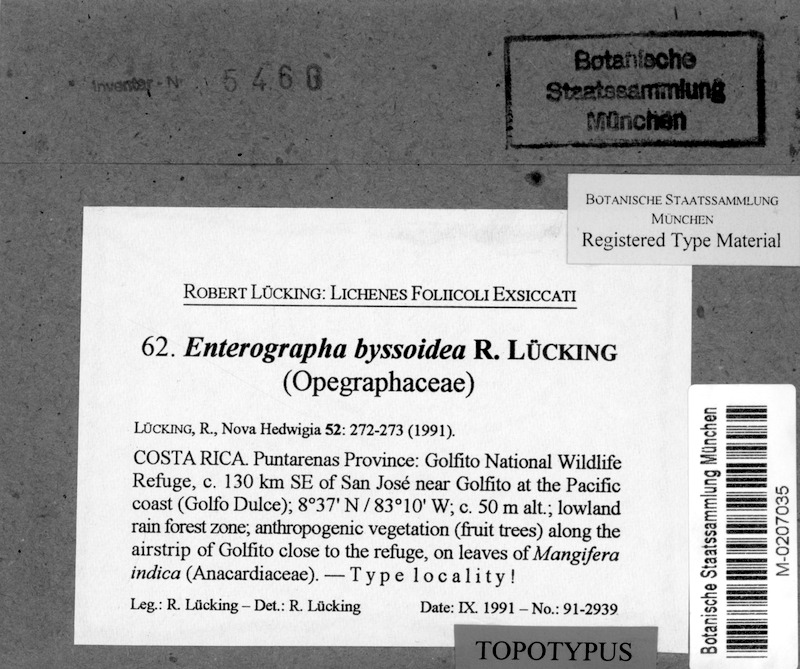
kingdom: Fungi
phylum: Ascomycota
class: Arthoniomycetes
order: Arthoniales
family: Roccellaceae
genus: Enterographa
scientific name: Enterographa byssoidea
